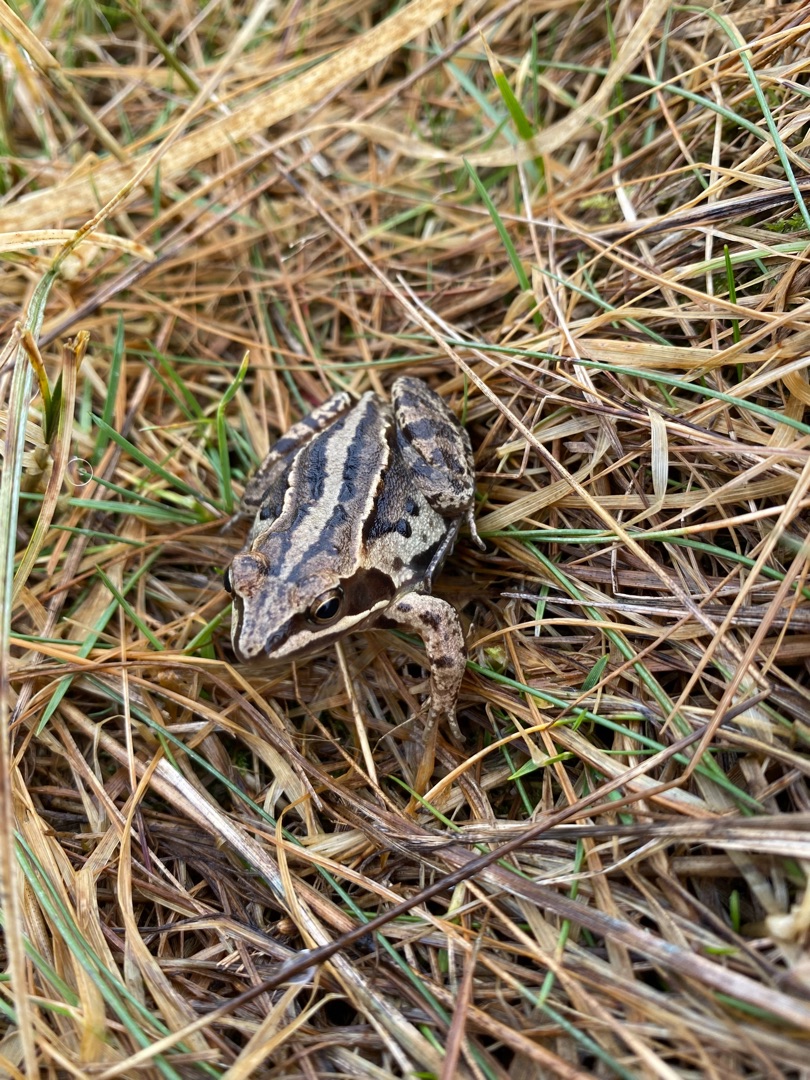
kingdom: Animalia
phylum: Chordata
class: Amphibia
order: Anura
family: Ranidae
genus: Rana
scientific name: Rana arvalis
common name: Spidssnudet frø
